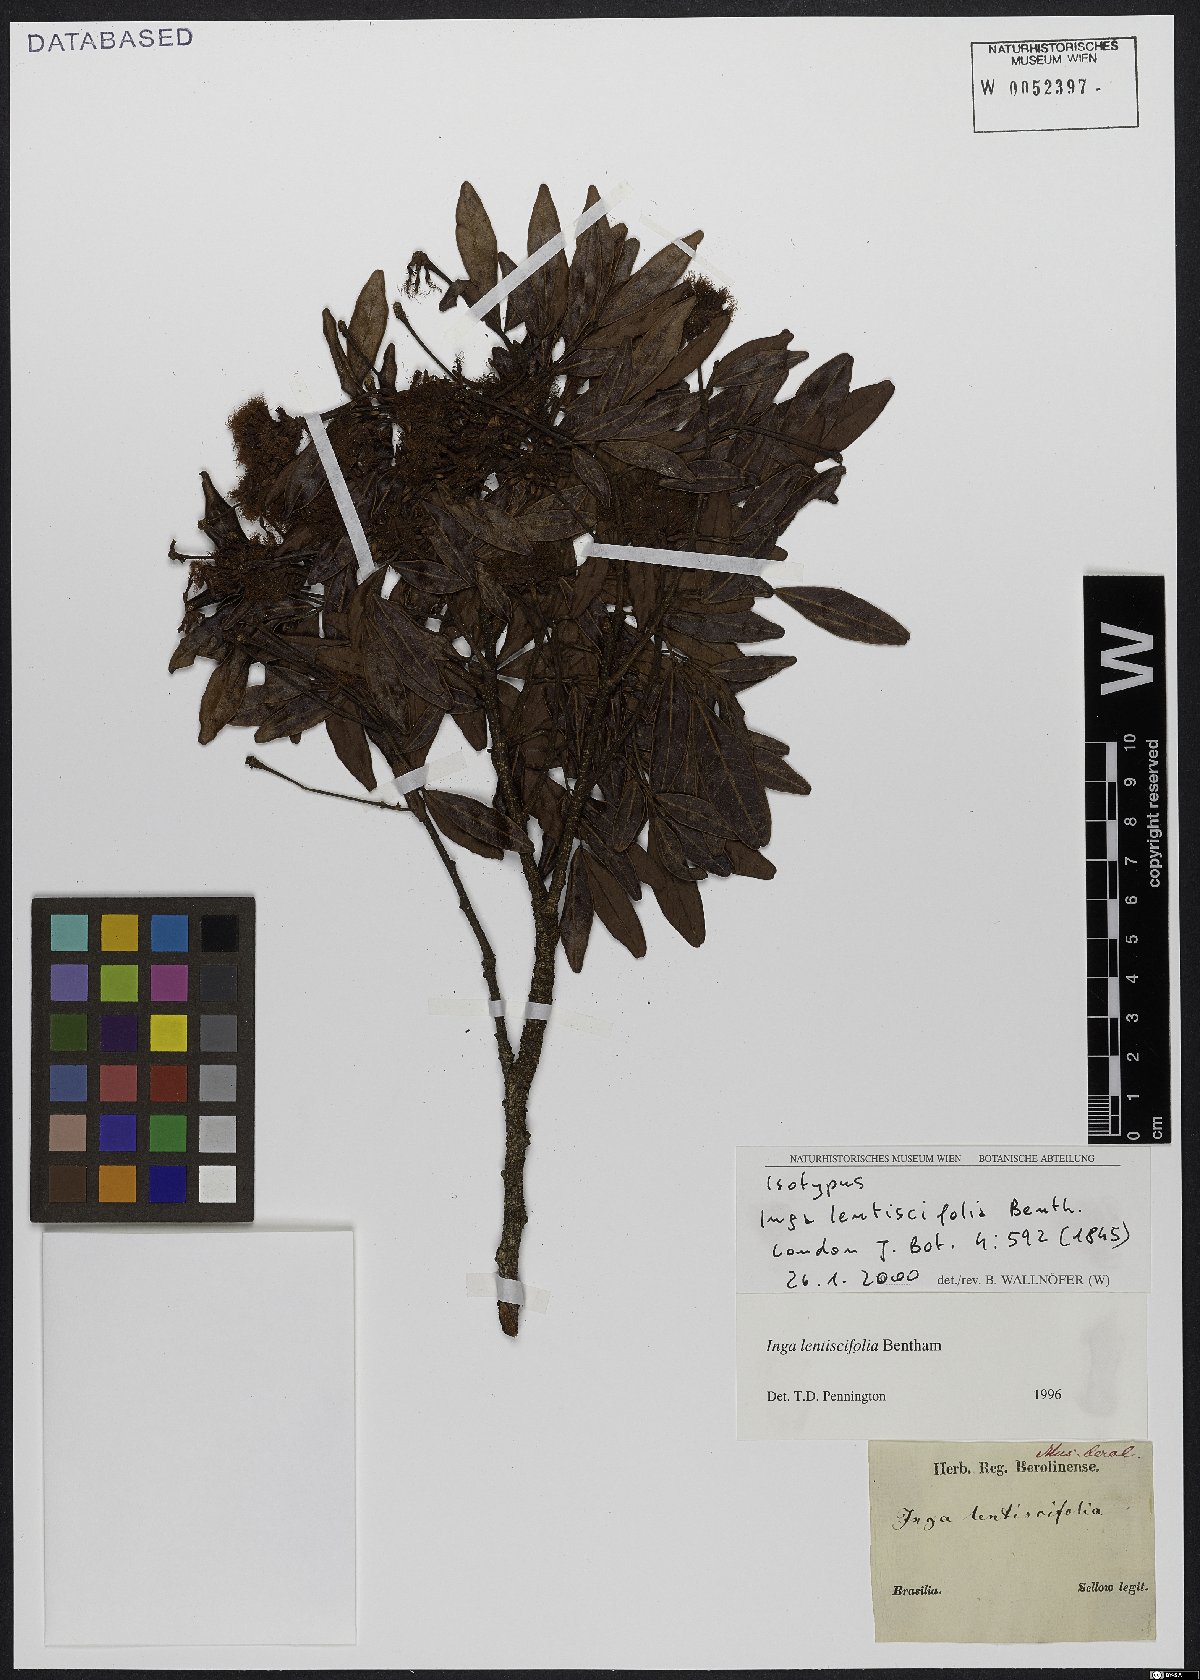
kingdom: Plantae
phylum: Tracheophyta
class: Magnoliopsida
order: Fabales
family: Fabaceae
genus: Inga
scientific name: Inga lentiscifolia
